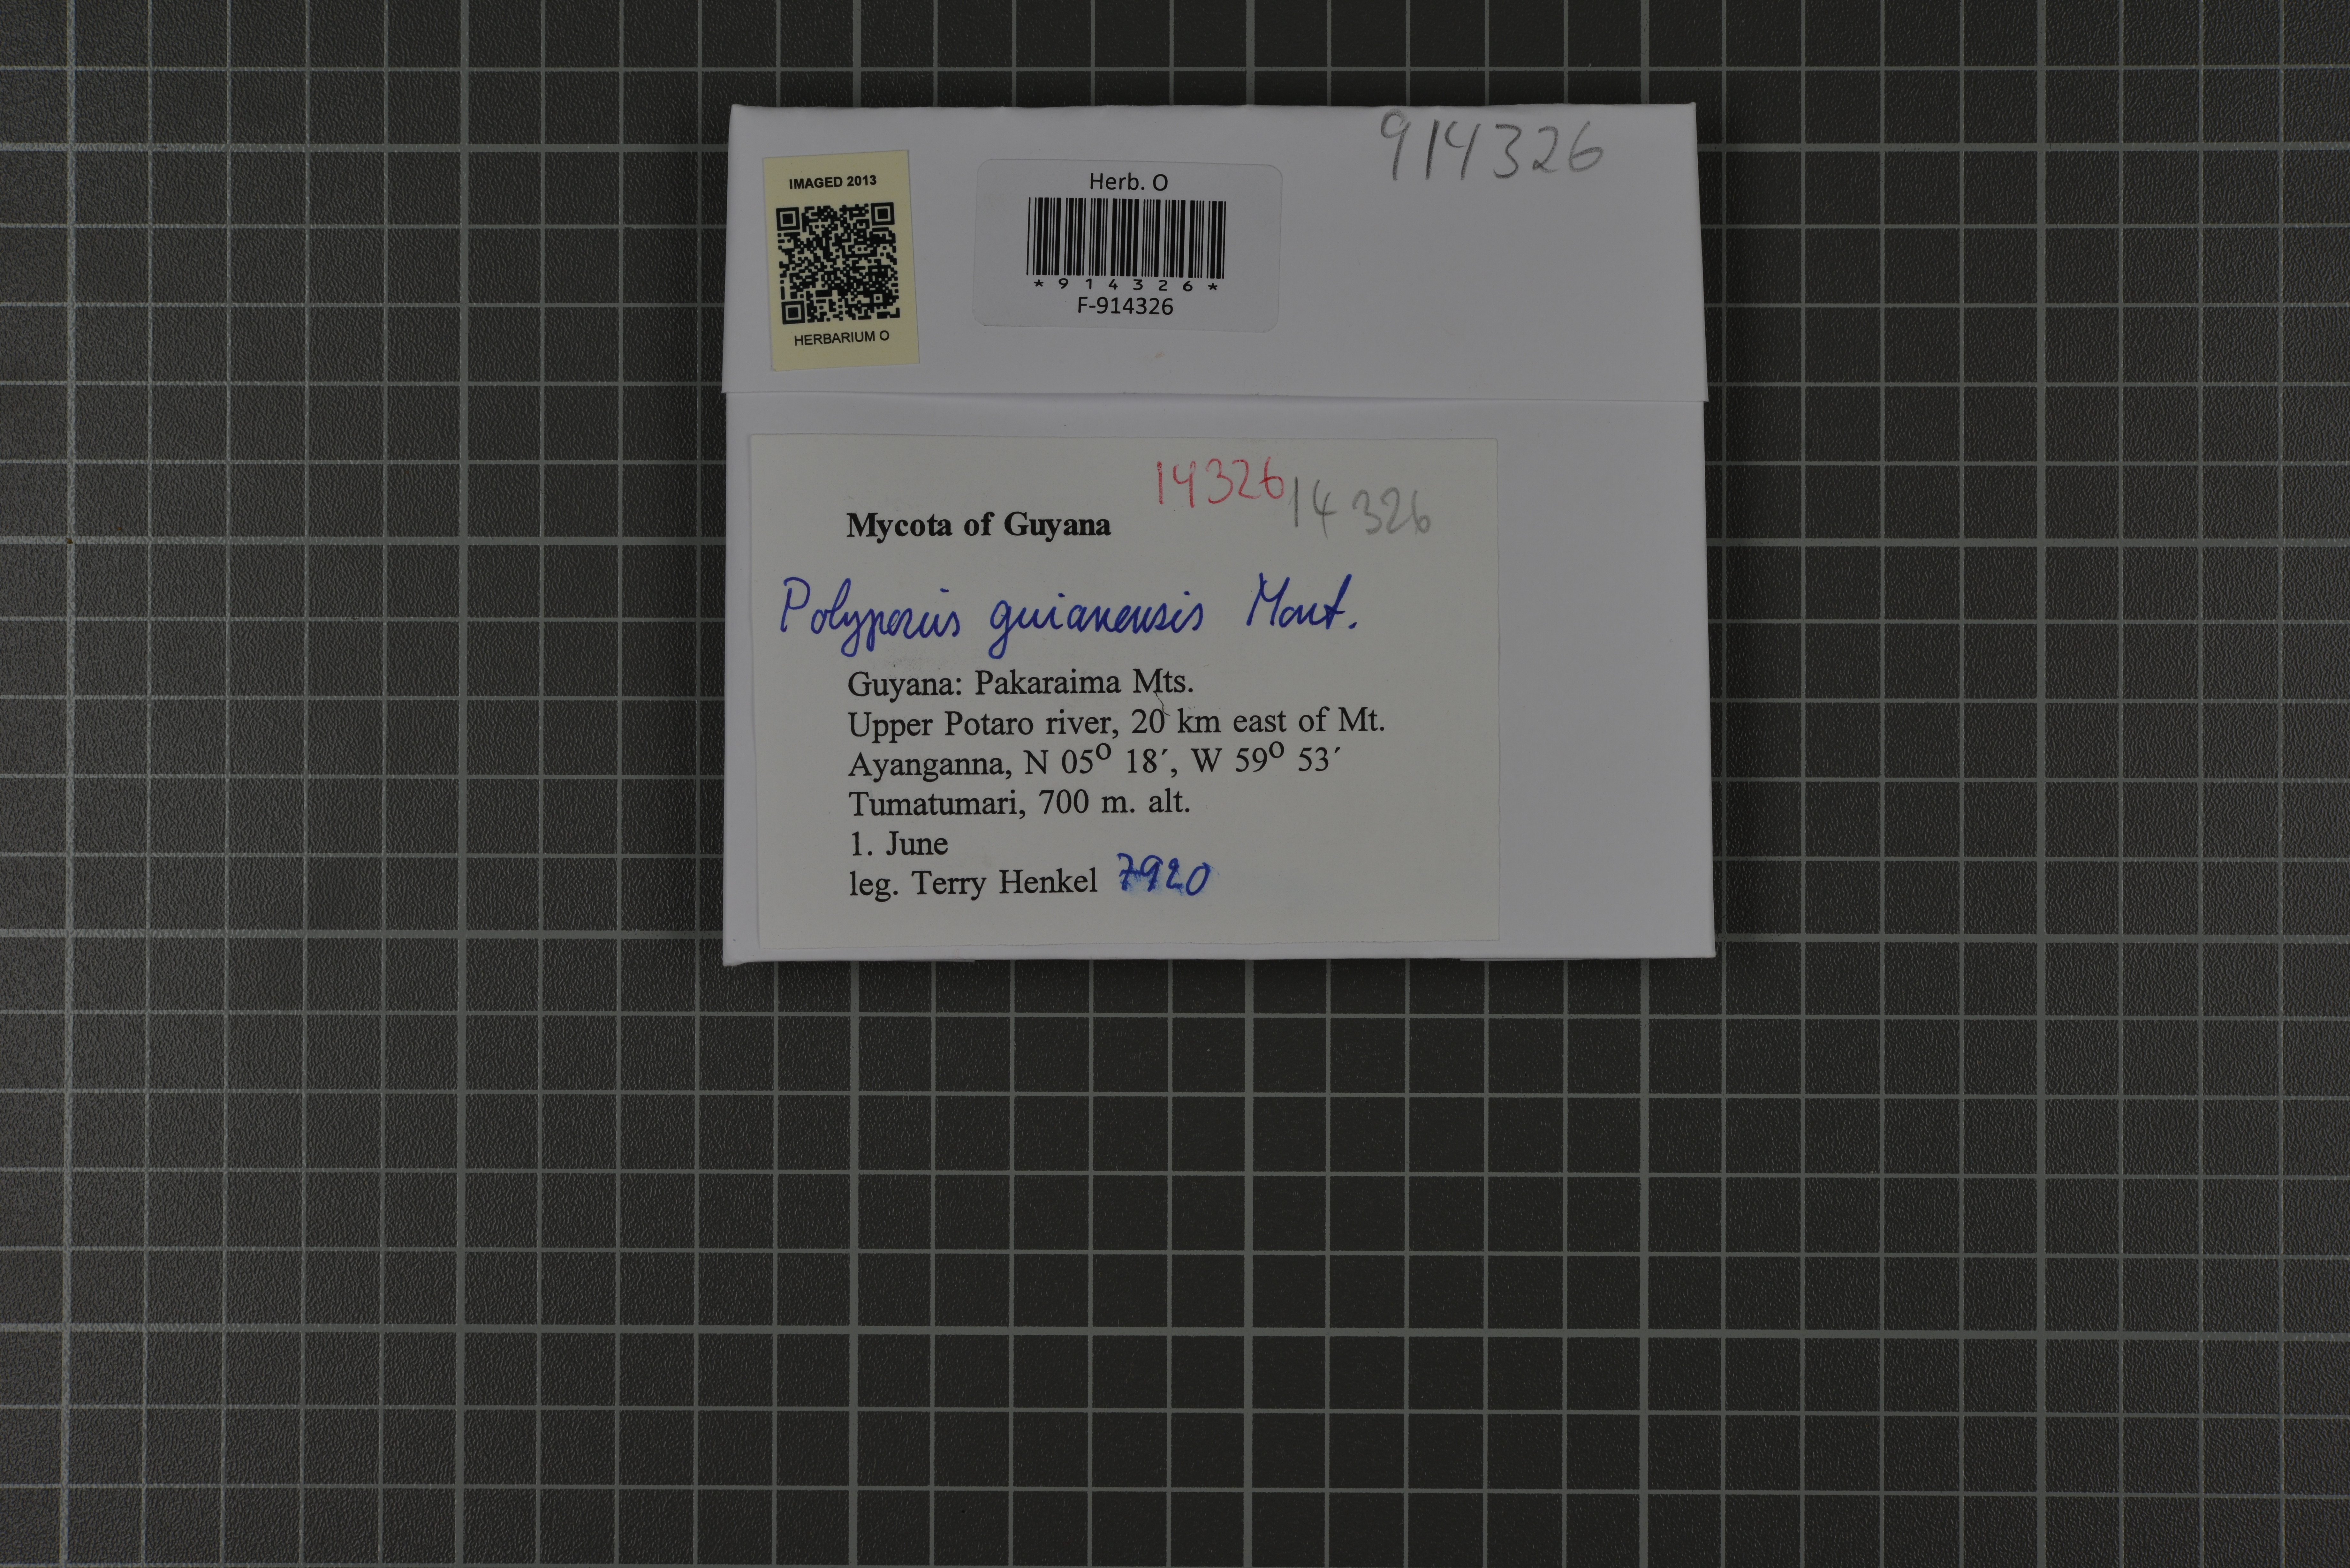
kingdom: Fungi
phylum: Basidiomycota
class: Agaricomycetes
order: Polyporales
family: Polyporaceae
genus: Polyporus
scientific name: Polyporus guianensis
